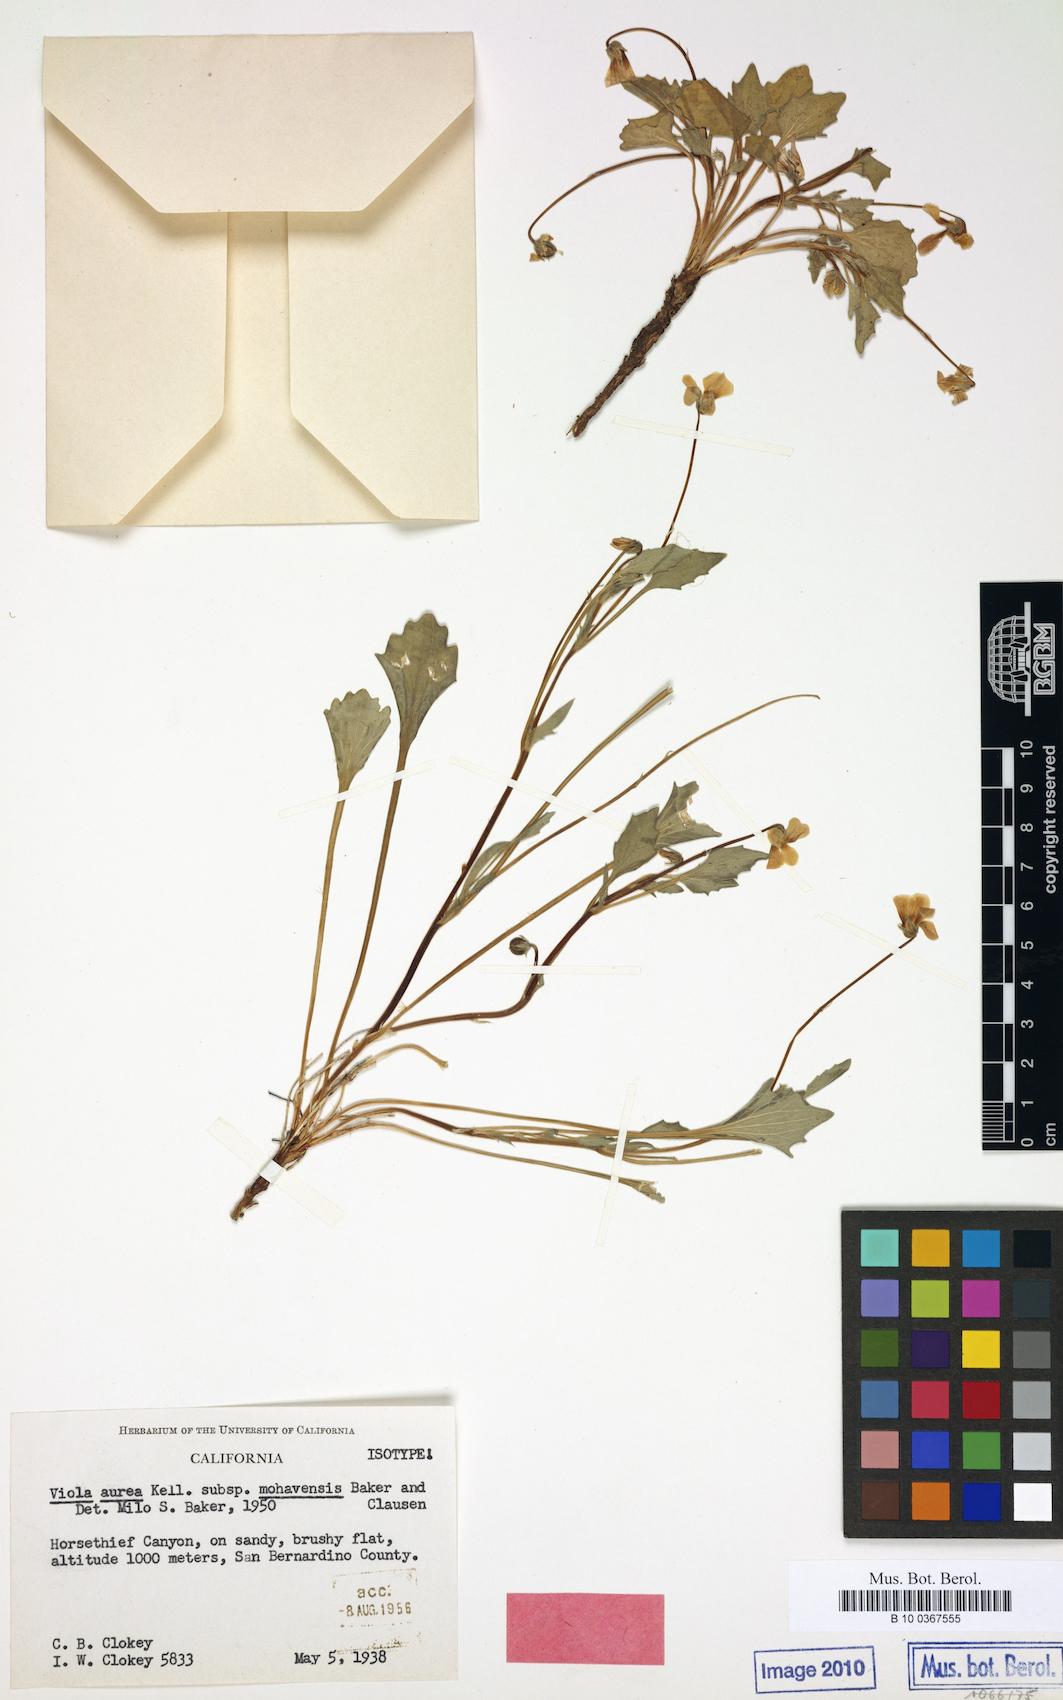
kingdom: Plantae
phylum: Tracheophyta
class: Magnoliopsida
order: Malpighiales
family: Violaceae
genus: Viola
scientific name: Viola aurea
